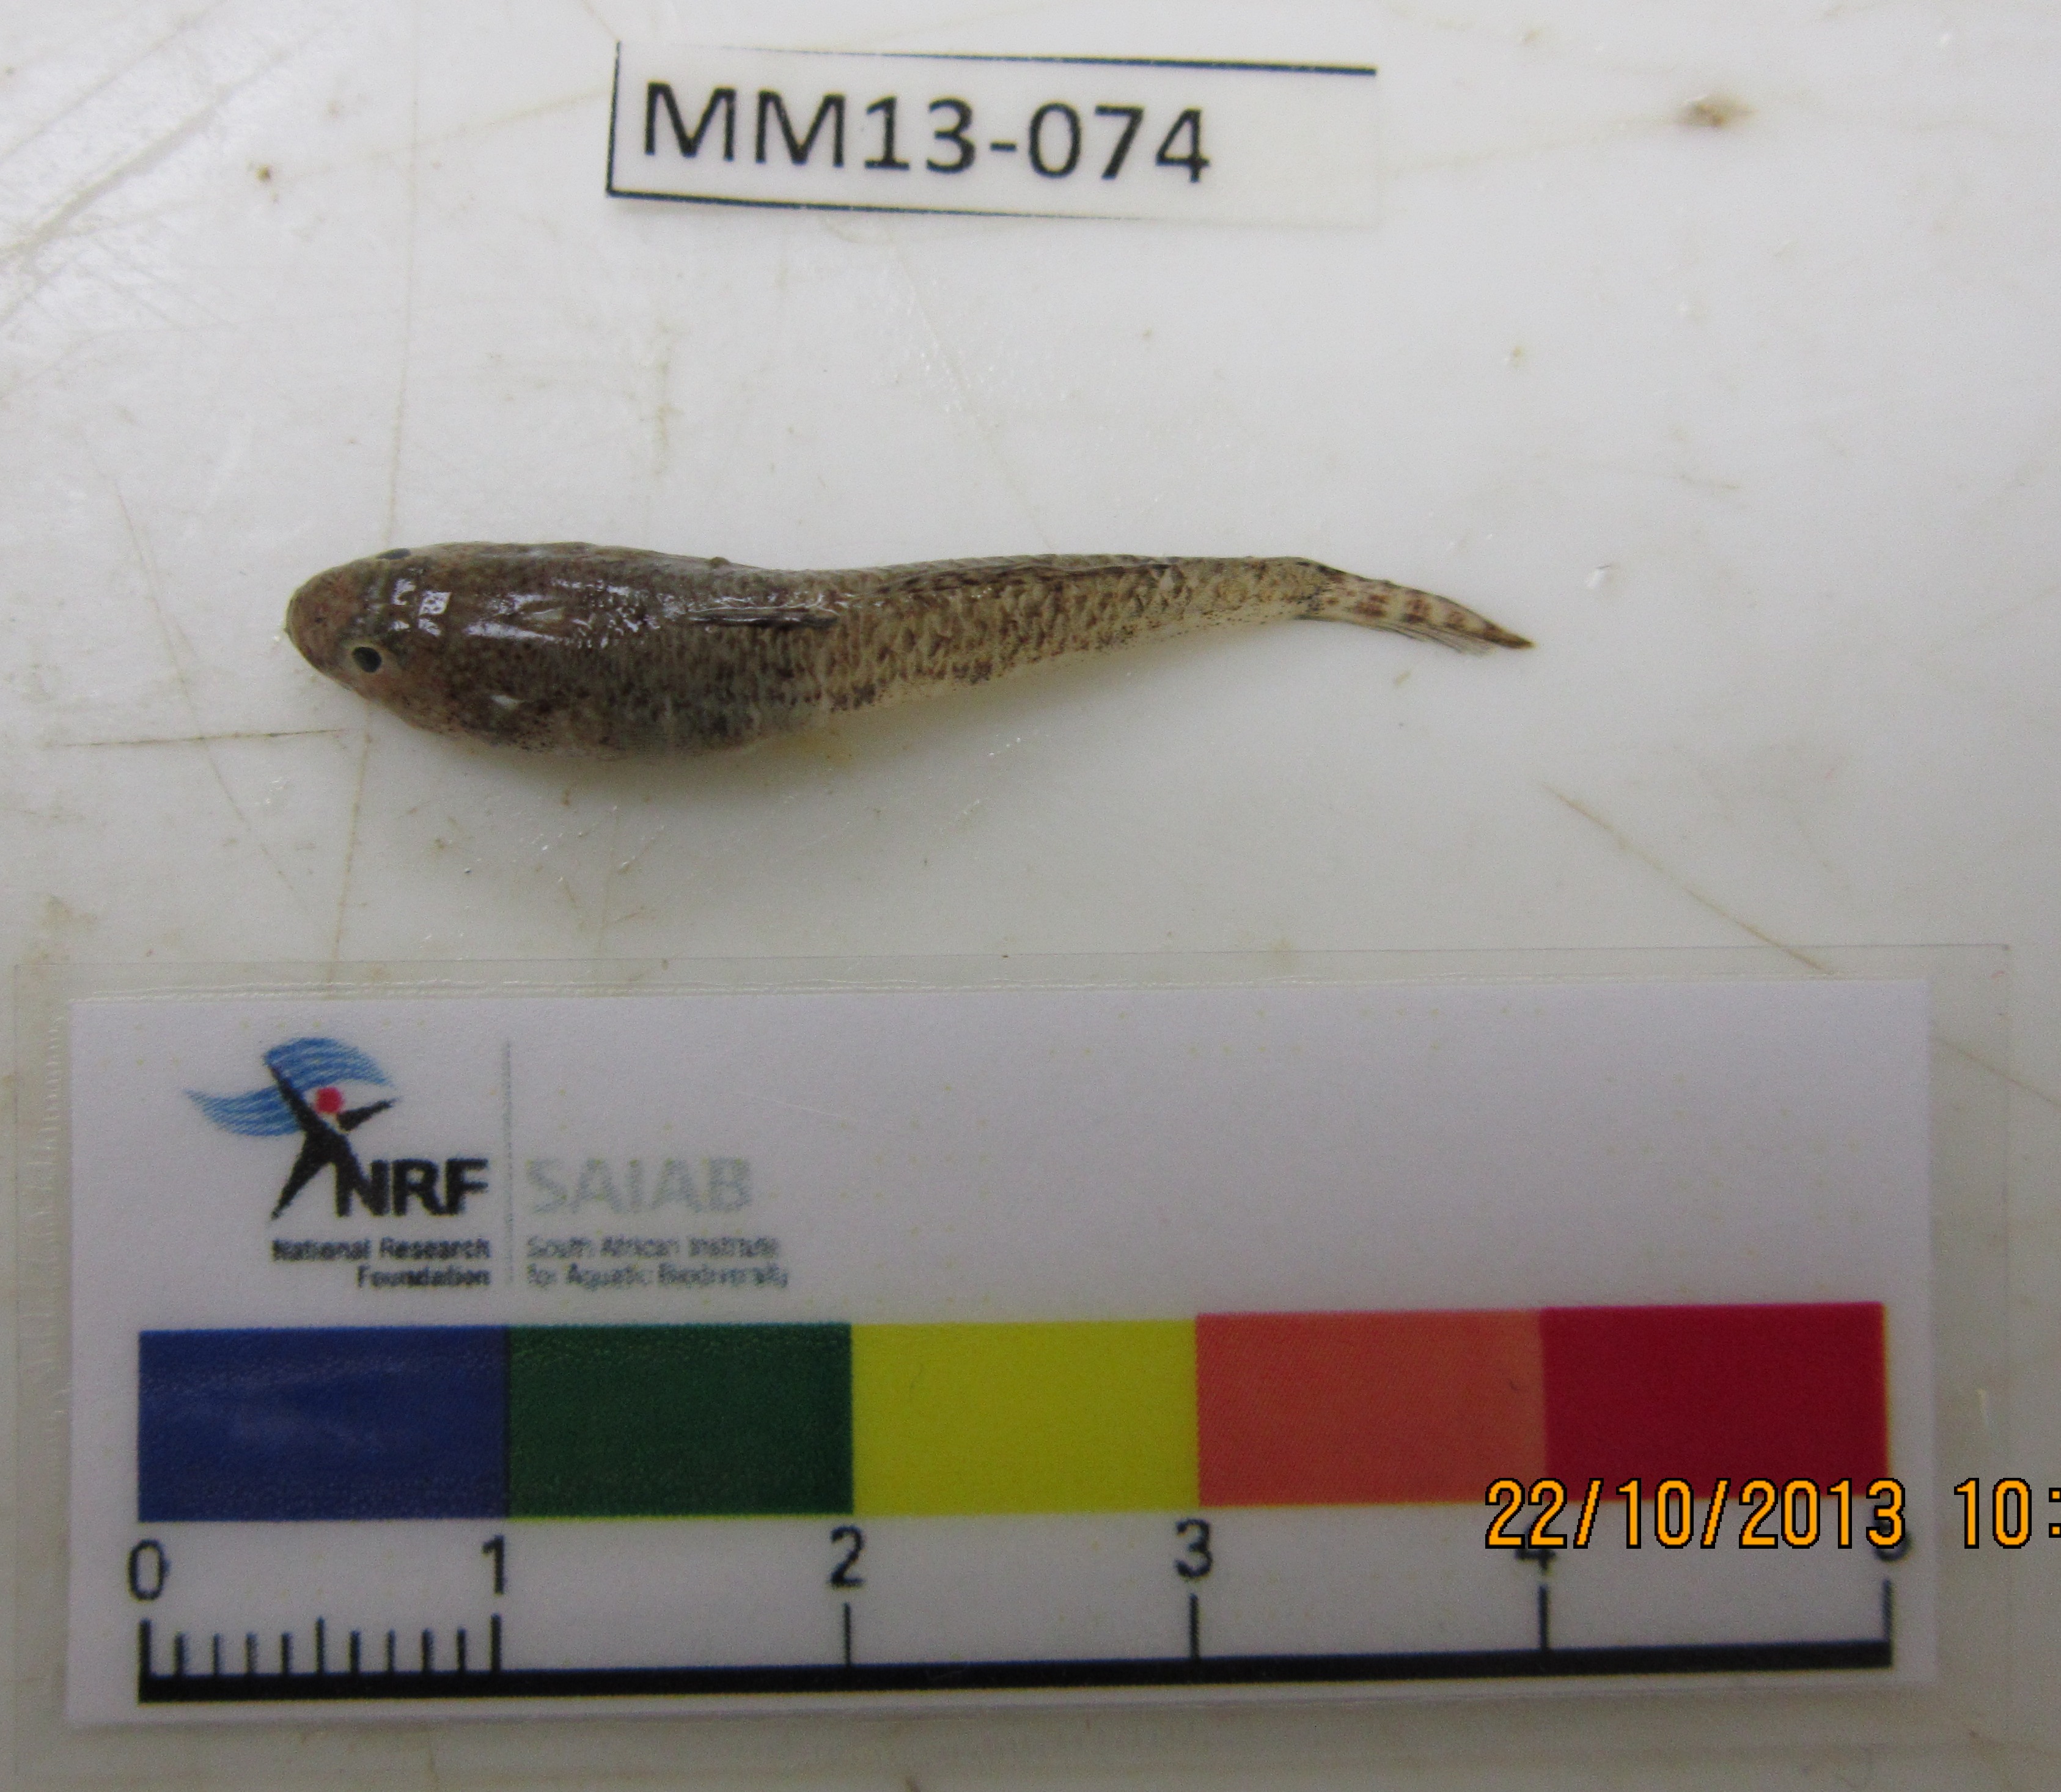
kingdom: Animalia
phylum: Chordata
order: Perciformes
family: Gobiidae
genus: Psammogobius
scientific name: Psammogobius knysnaensis
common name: Knysna sandgoby
